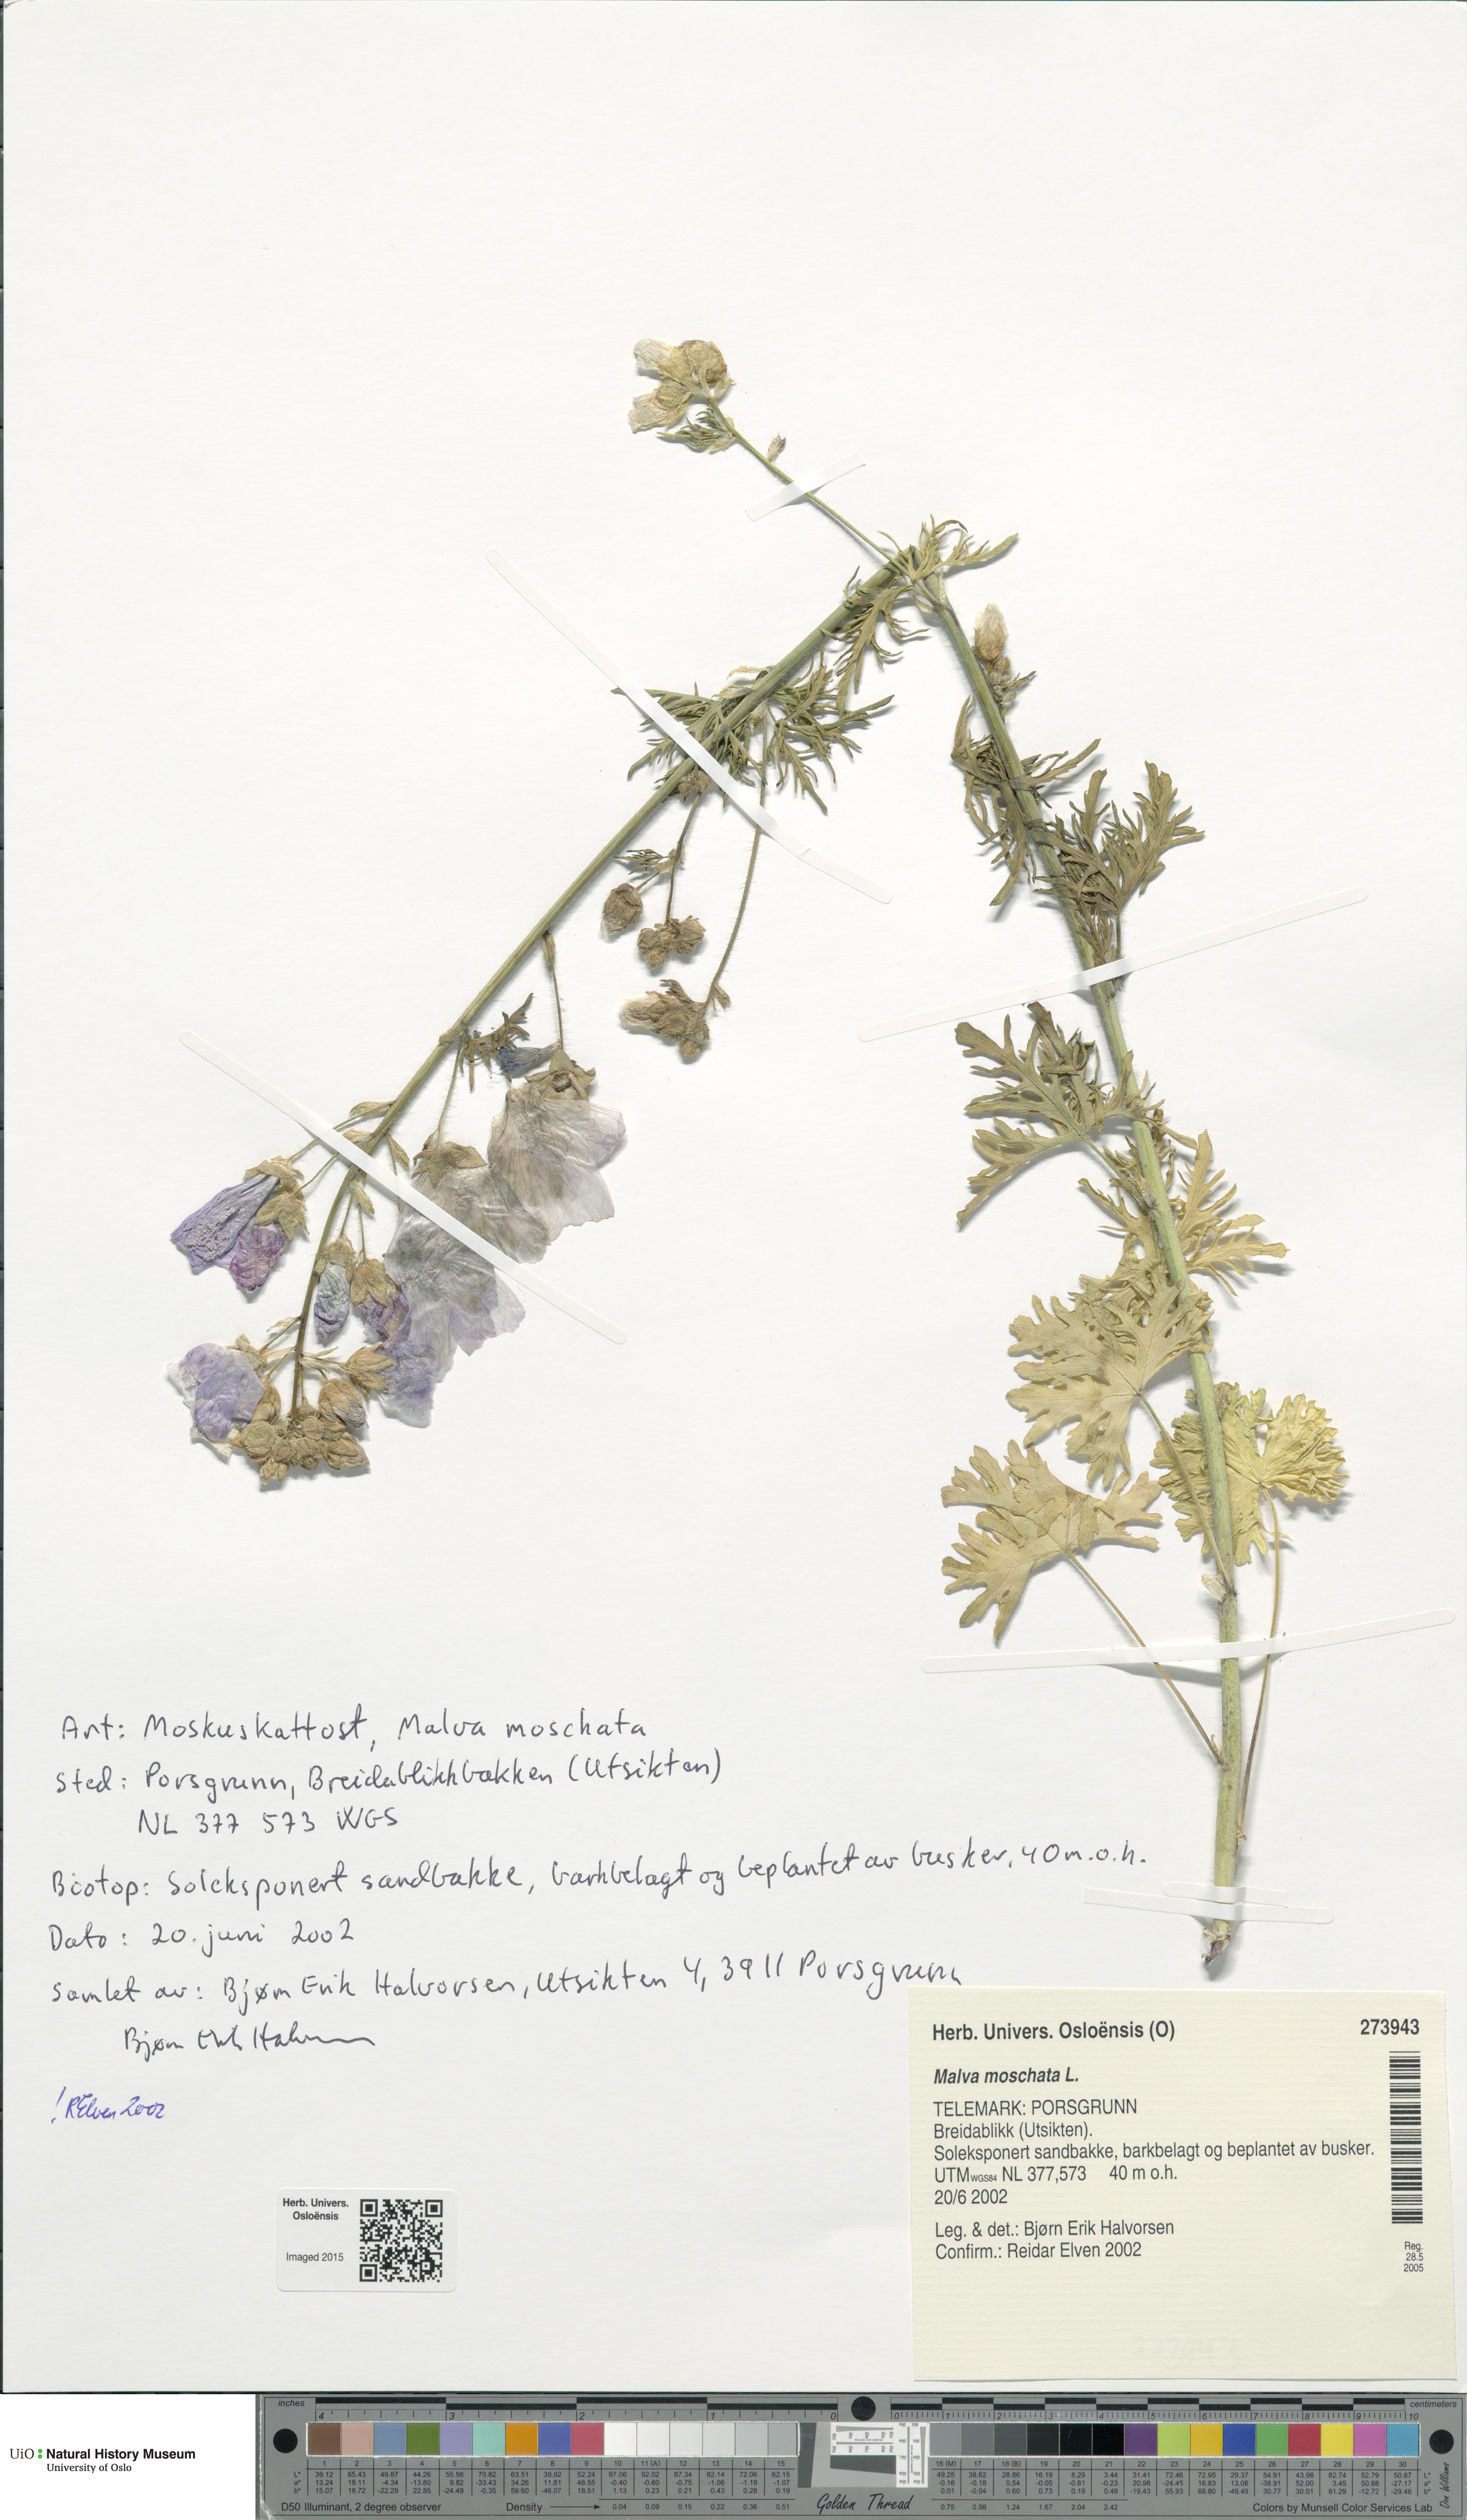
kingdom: Plantae
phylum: Tracheophyta
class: Magnoliopsida
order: Malvales
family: Malvaceae
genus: Malva
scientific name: Malva moschata
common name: Musk mallow
